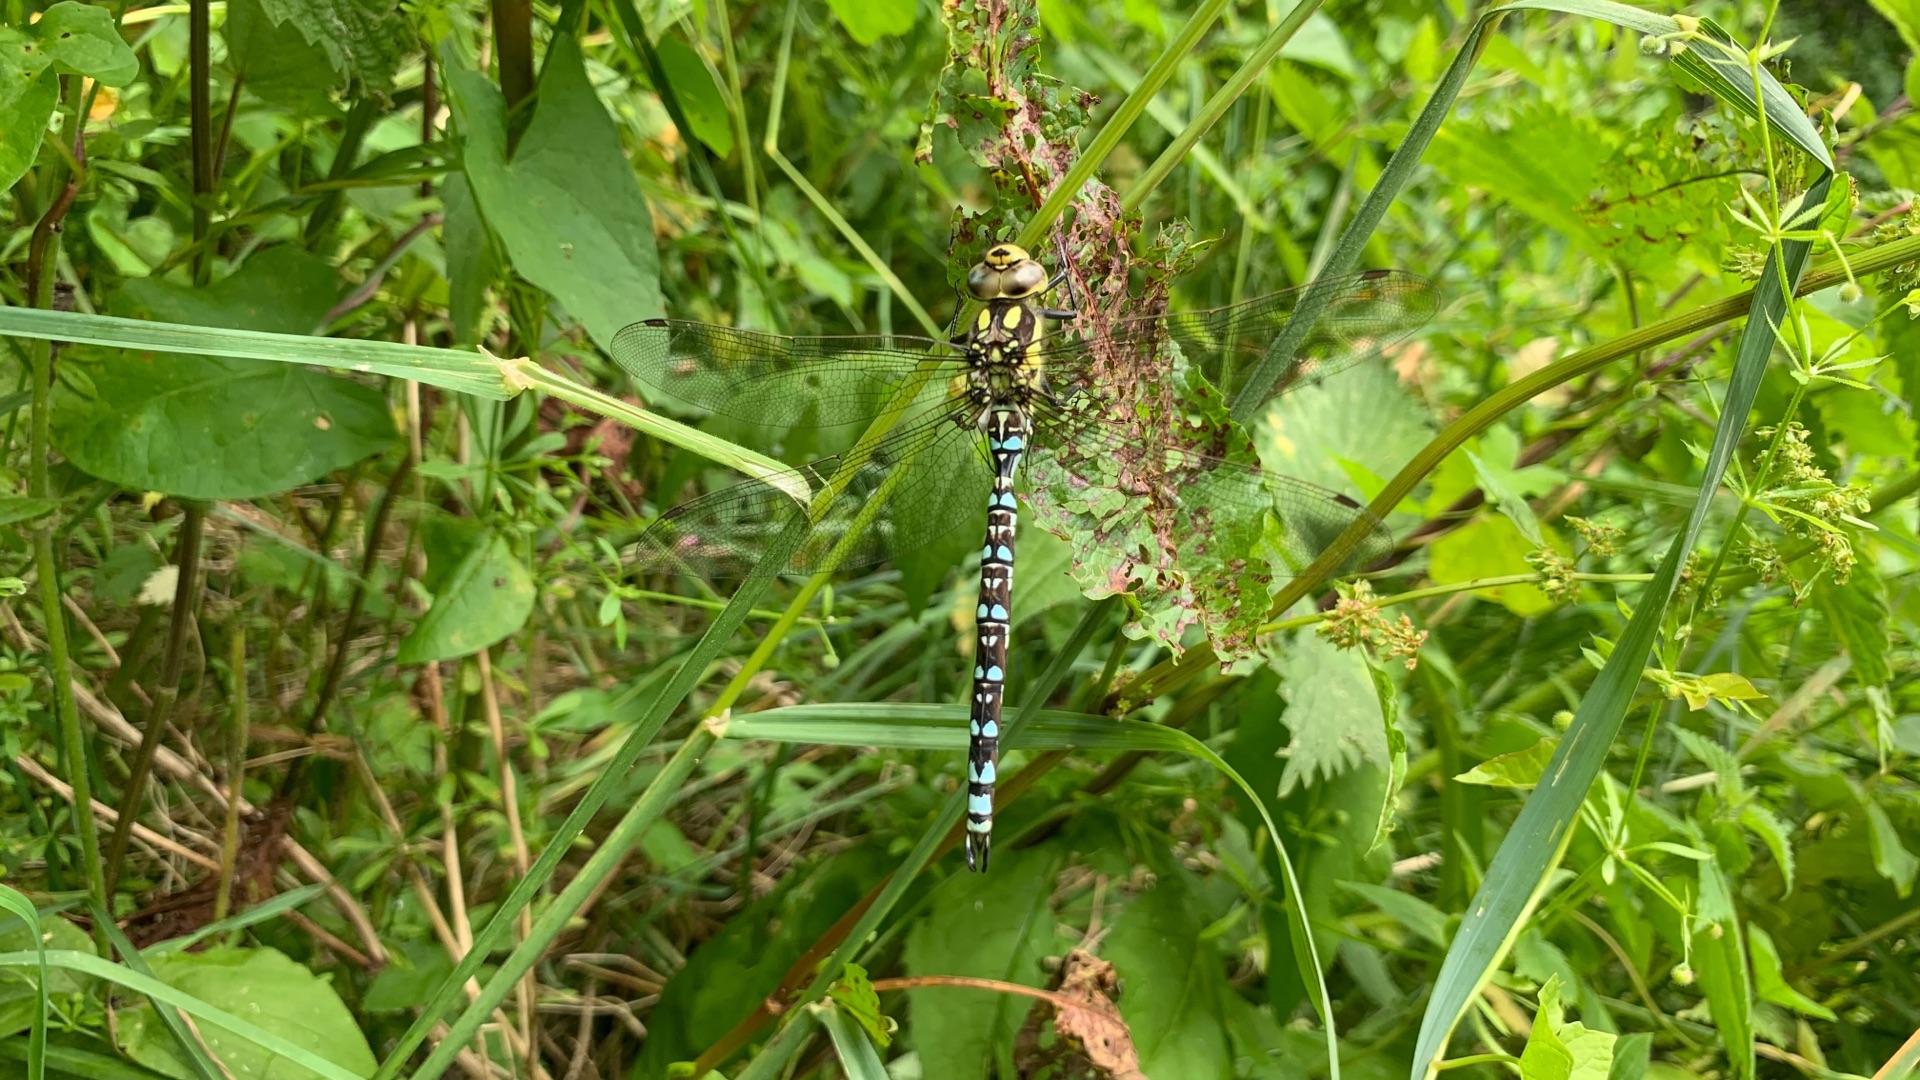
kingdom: Animalia
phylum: Arthropoda
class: Insecta
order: Odonata
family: Aeshnidae
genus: Aeshna
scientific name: Aeshna cyanea
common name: Blå mosaikguldsmed
